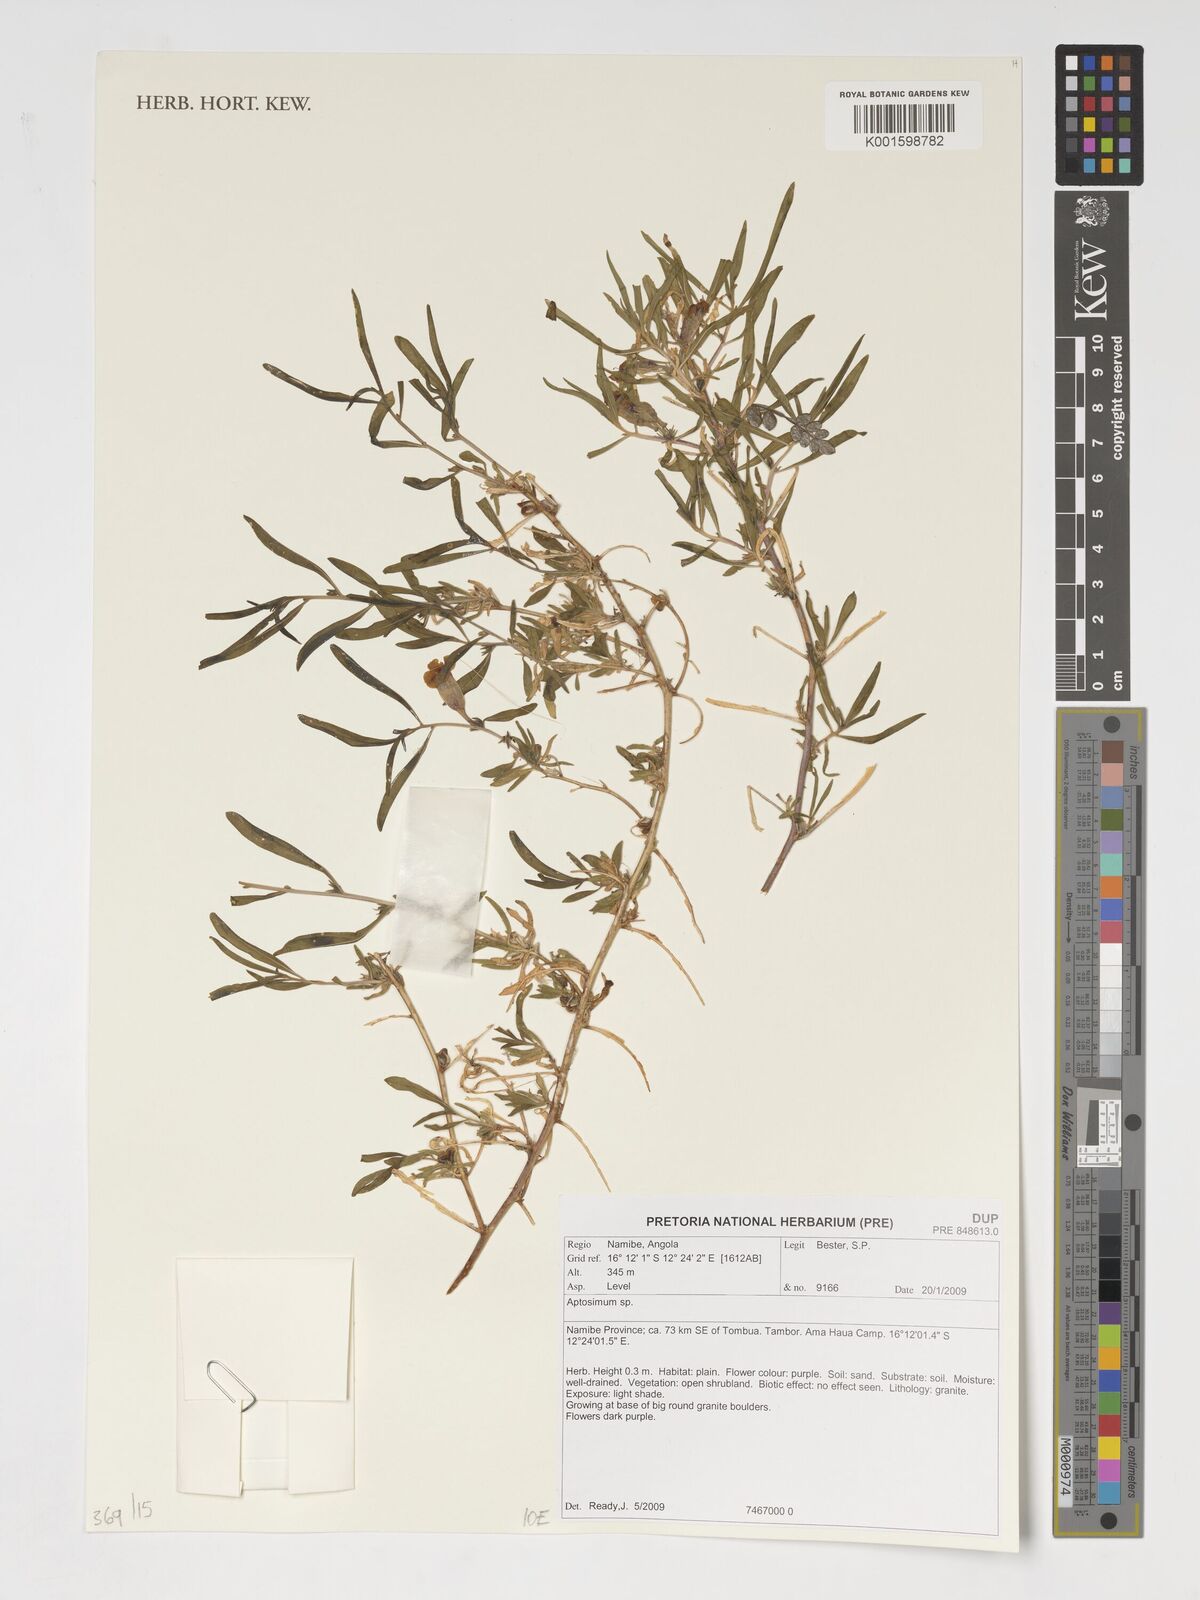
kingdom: Plantae
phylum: Tracheophyta
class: Magnoliopsida
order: Lamiales
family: Scrophulariaceae
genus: Aptosimum
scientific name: Aptosimum
